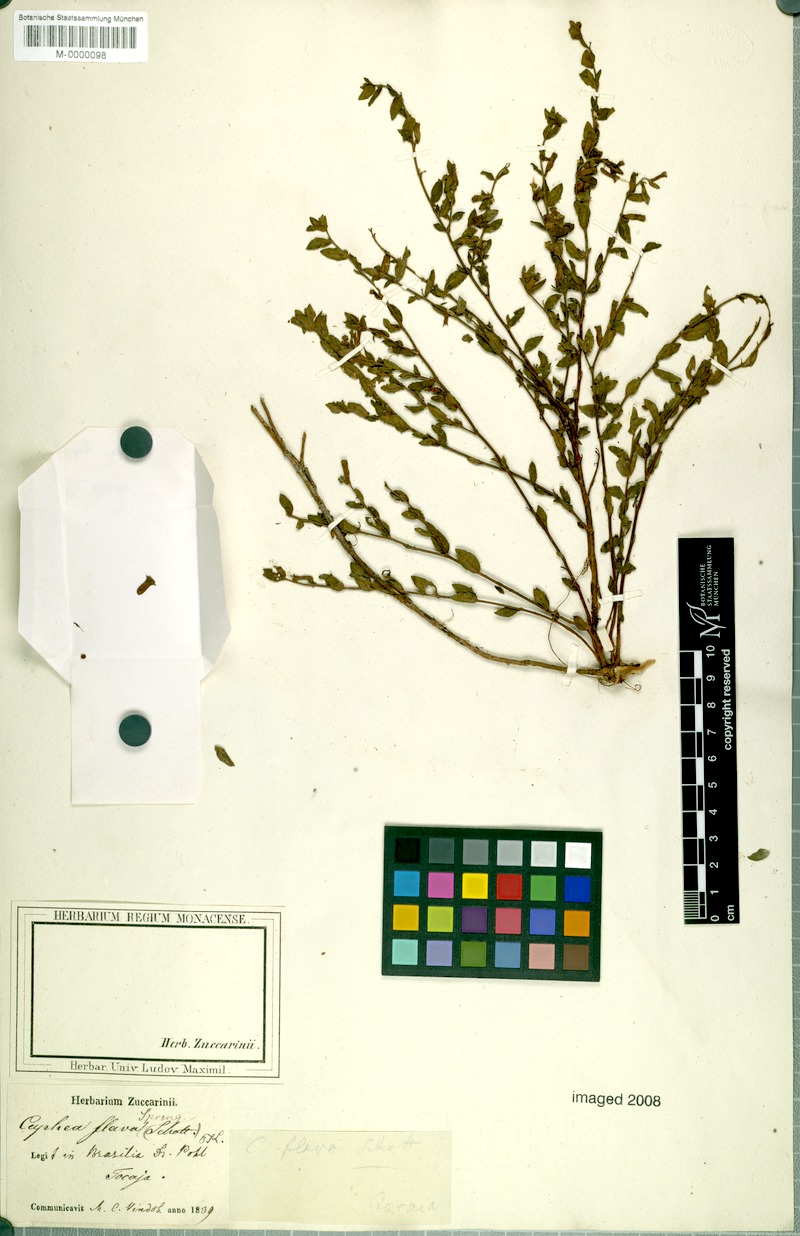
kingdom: Plantae
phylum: Tracheophyta
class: Magnoliopsida
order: Myrtales
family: Lythraceae
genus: Cuphea
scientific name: Cuphea flava
